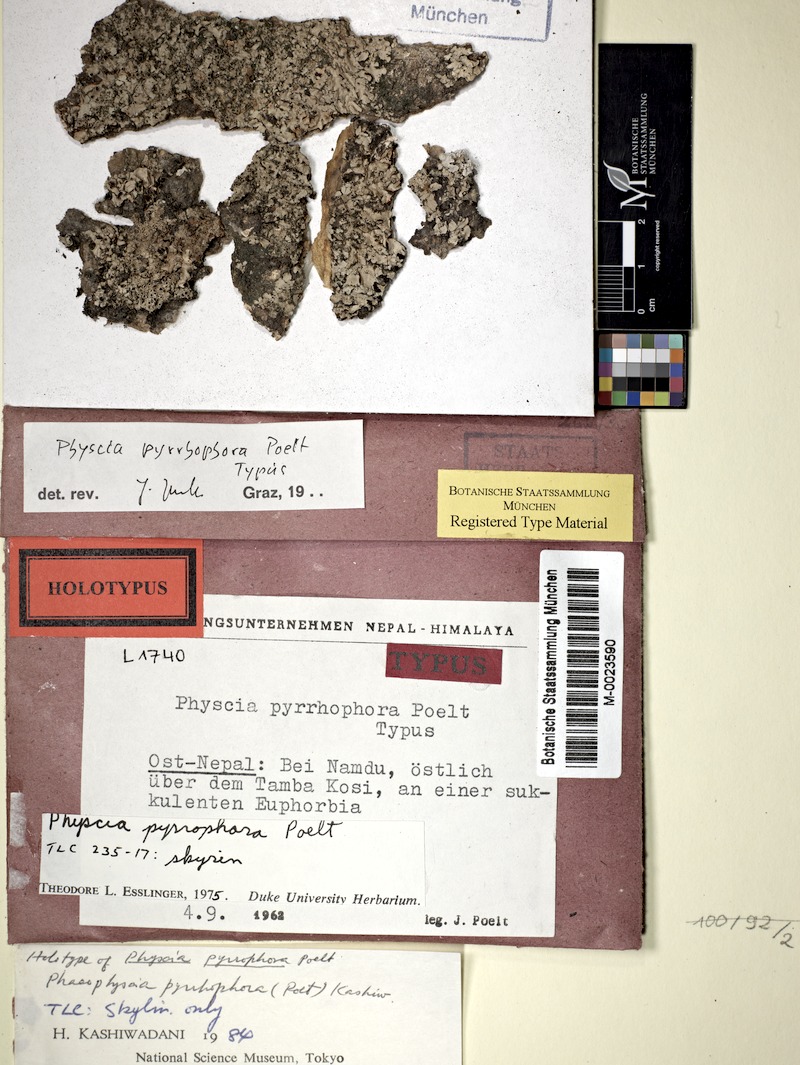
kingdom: Fungi
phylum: Ascomycota
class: Lecanoromycetes
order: Caliciales
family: Physciaceae
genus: Phaeophyscia
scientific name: Phaeophyscia pyrrhophora
